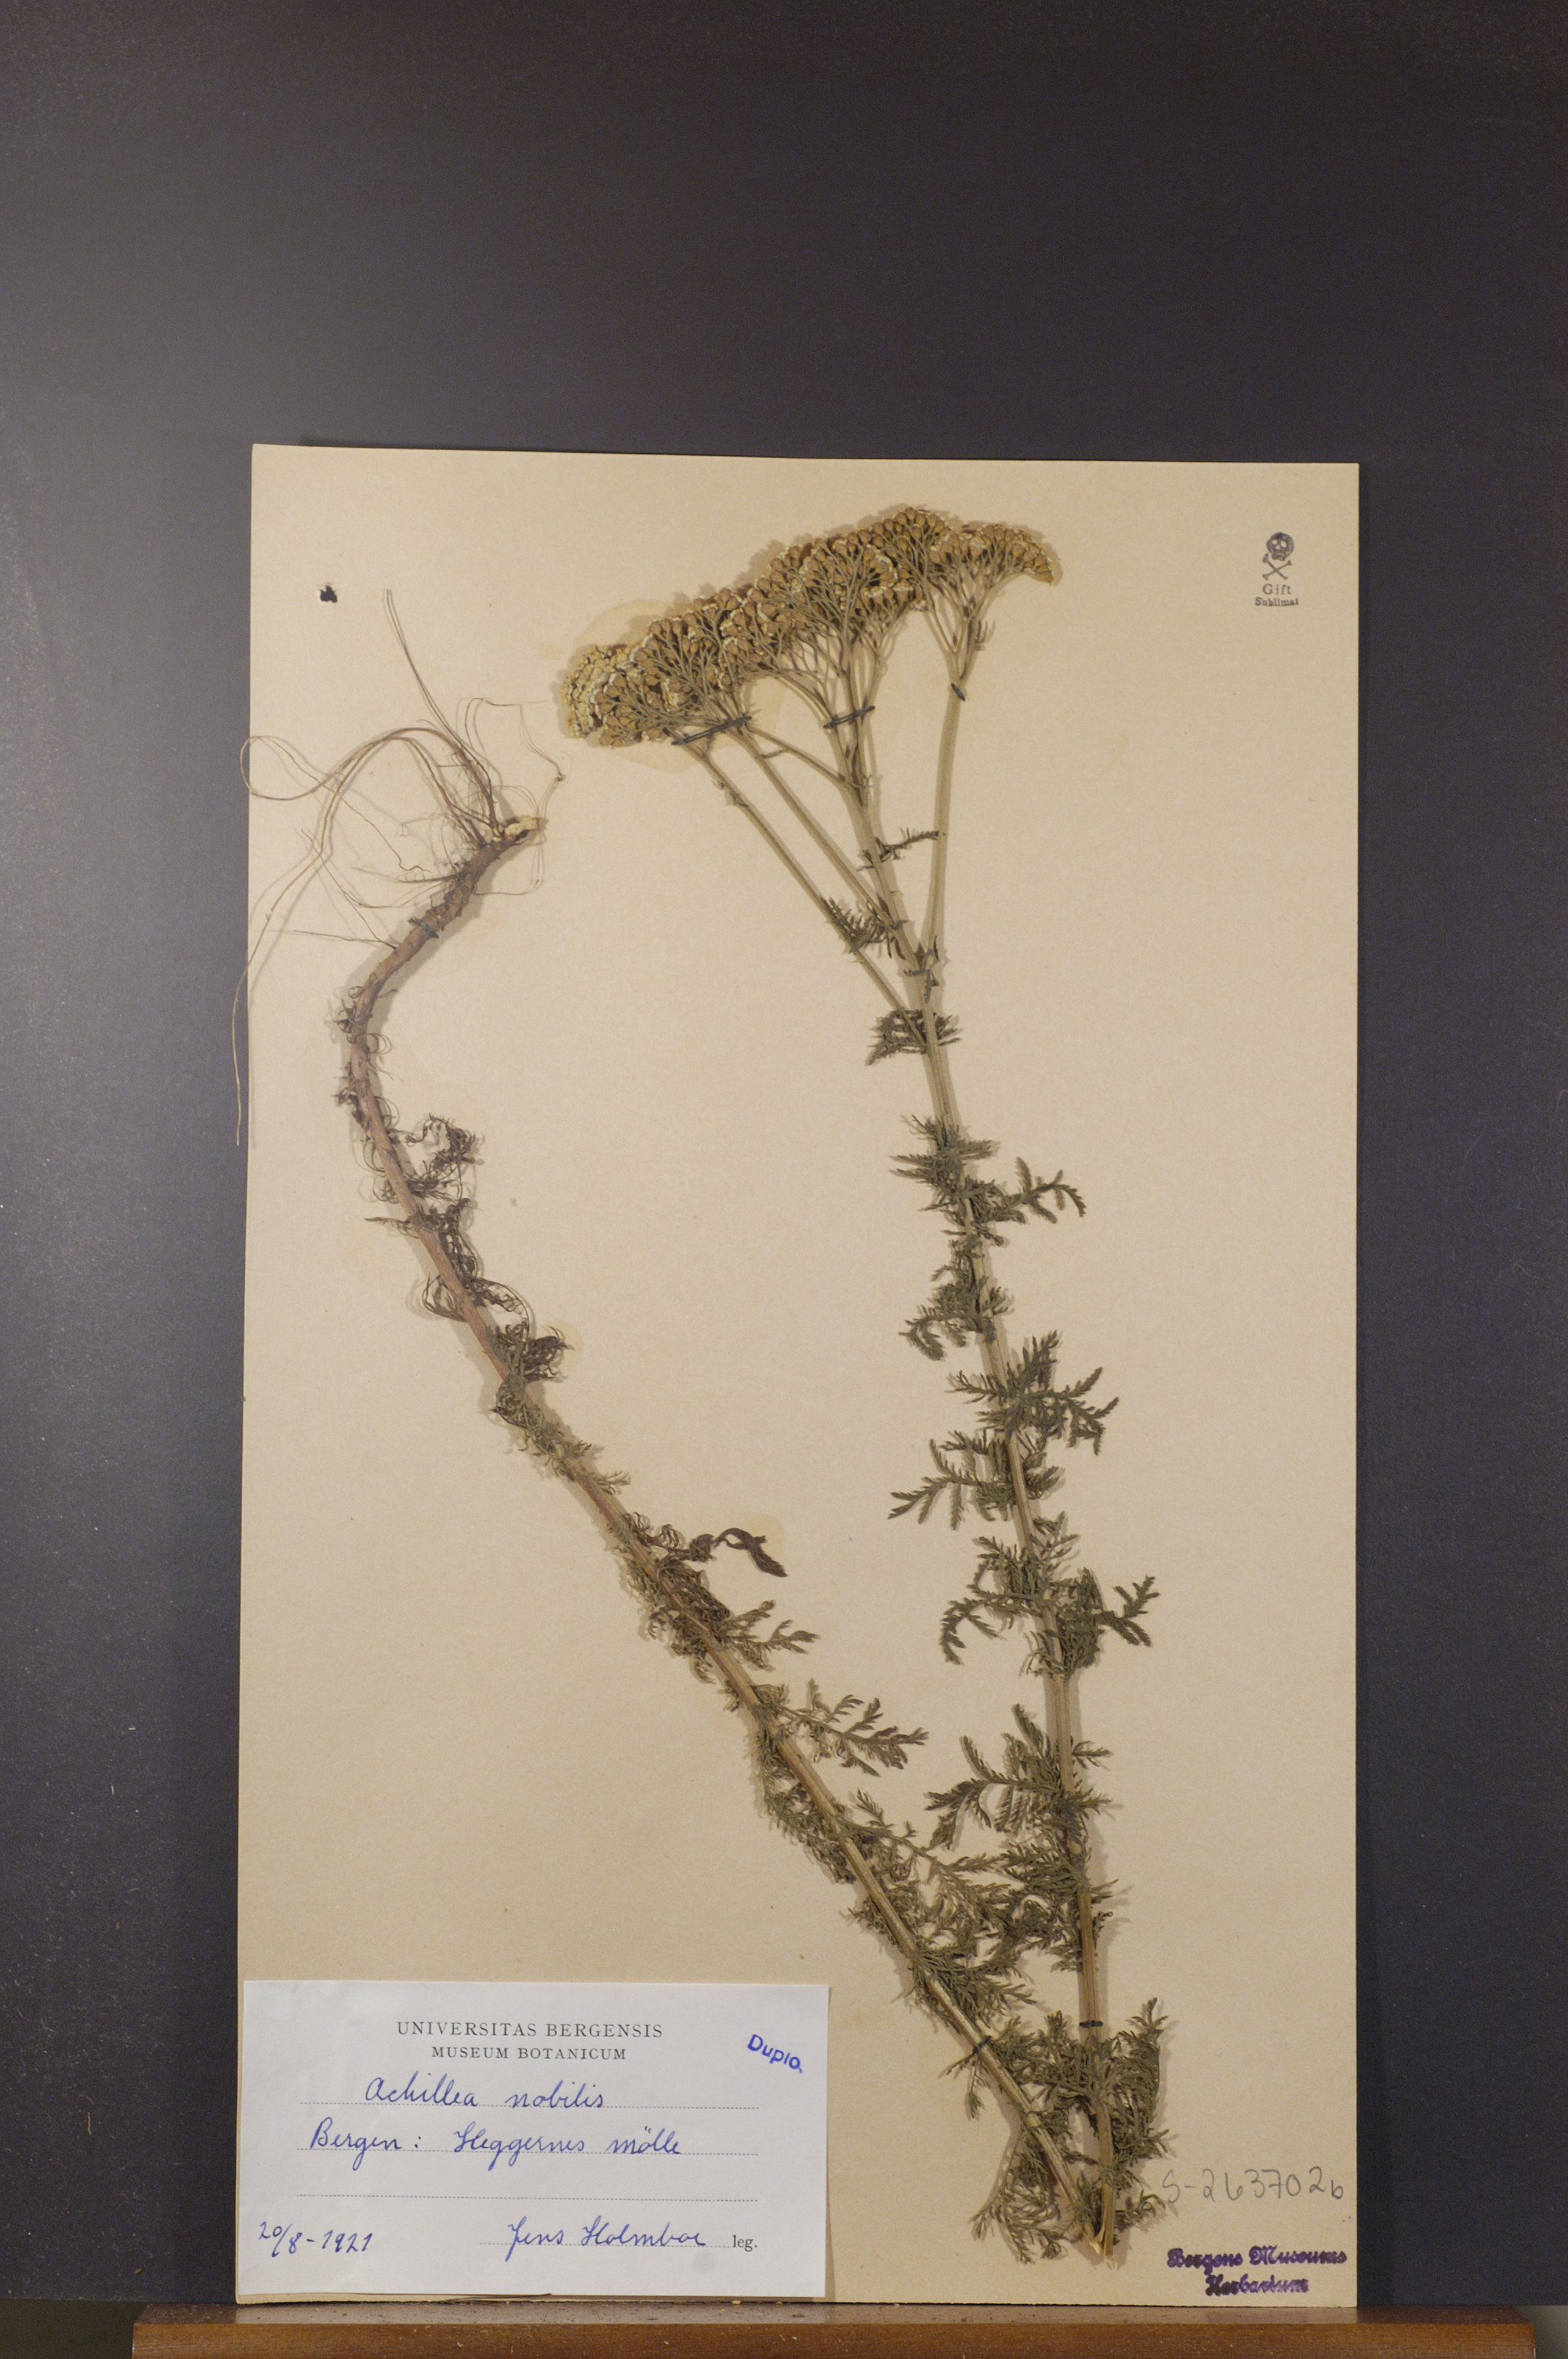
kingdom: Plantae
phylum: Tracheophyta
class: Magnoliopsida
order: Asterales
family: Asteraceae
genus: Achillea
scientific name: Achillea nobilis
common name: Noble yarrow
